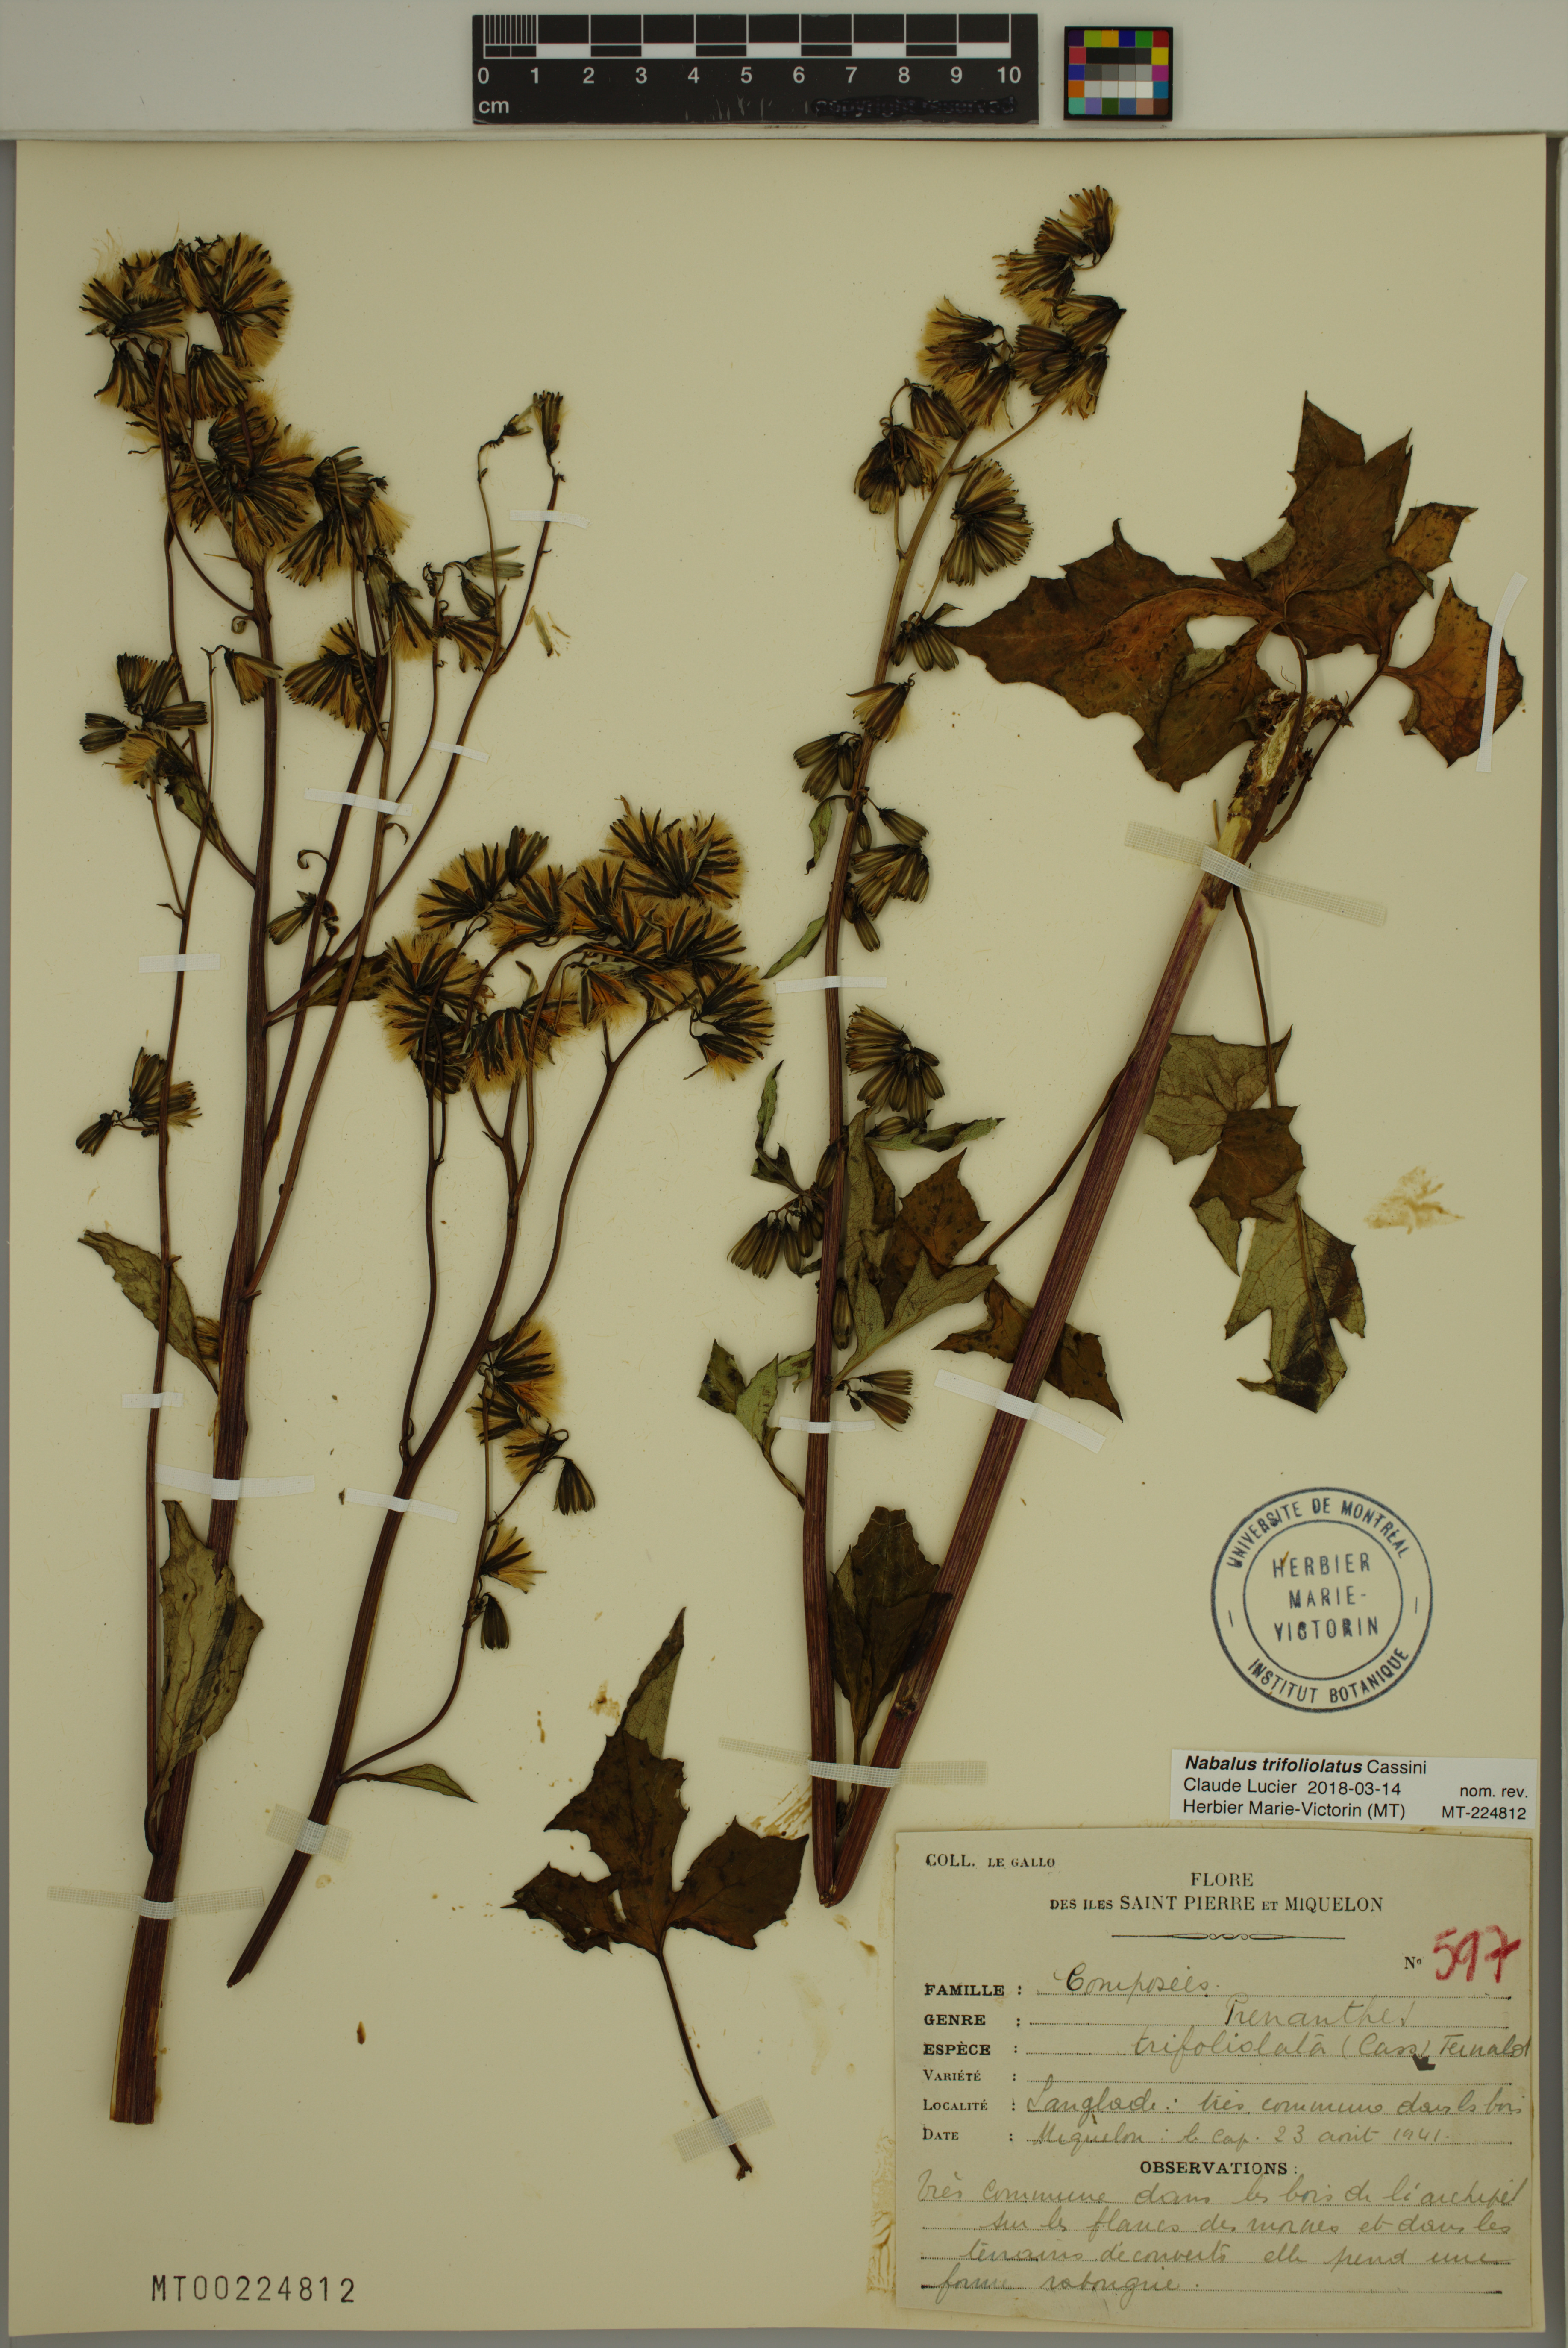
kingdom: Plantae
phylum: Tracheophyta
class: Magnoliopsida
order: Asterales
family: Asteraceae
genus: Nabalus
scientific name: Nabalus trifoliolatus
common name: Gall-of-the-earth
